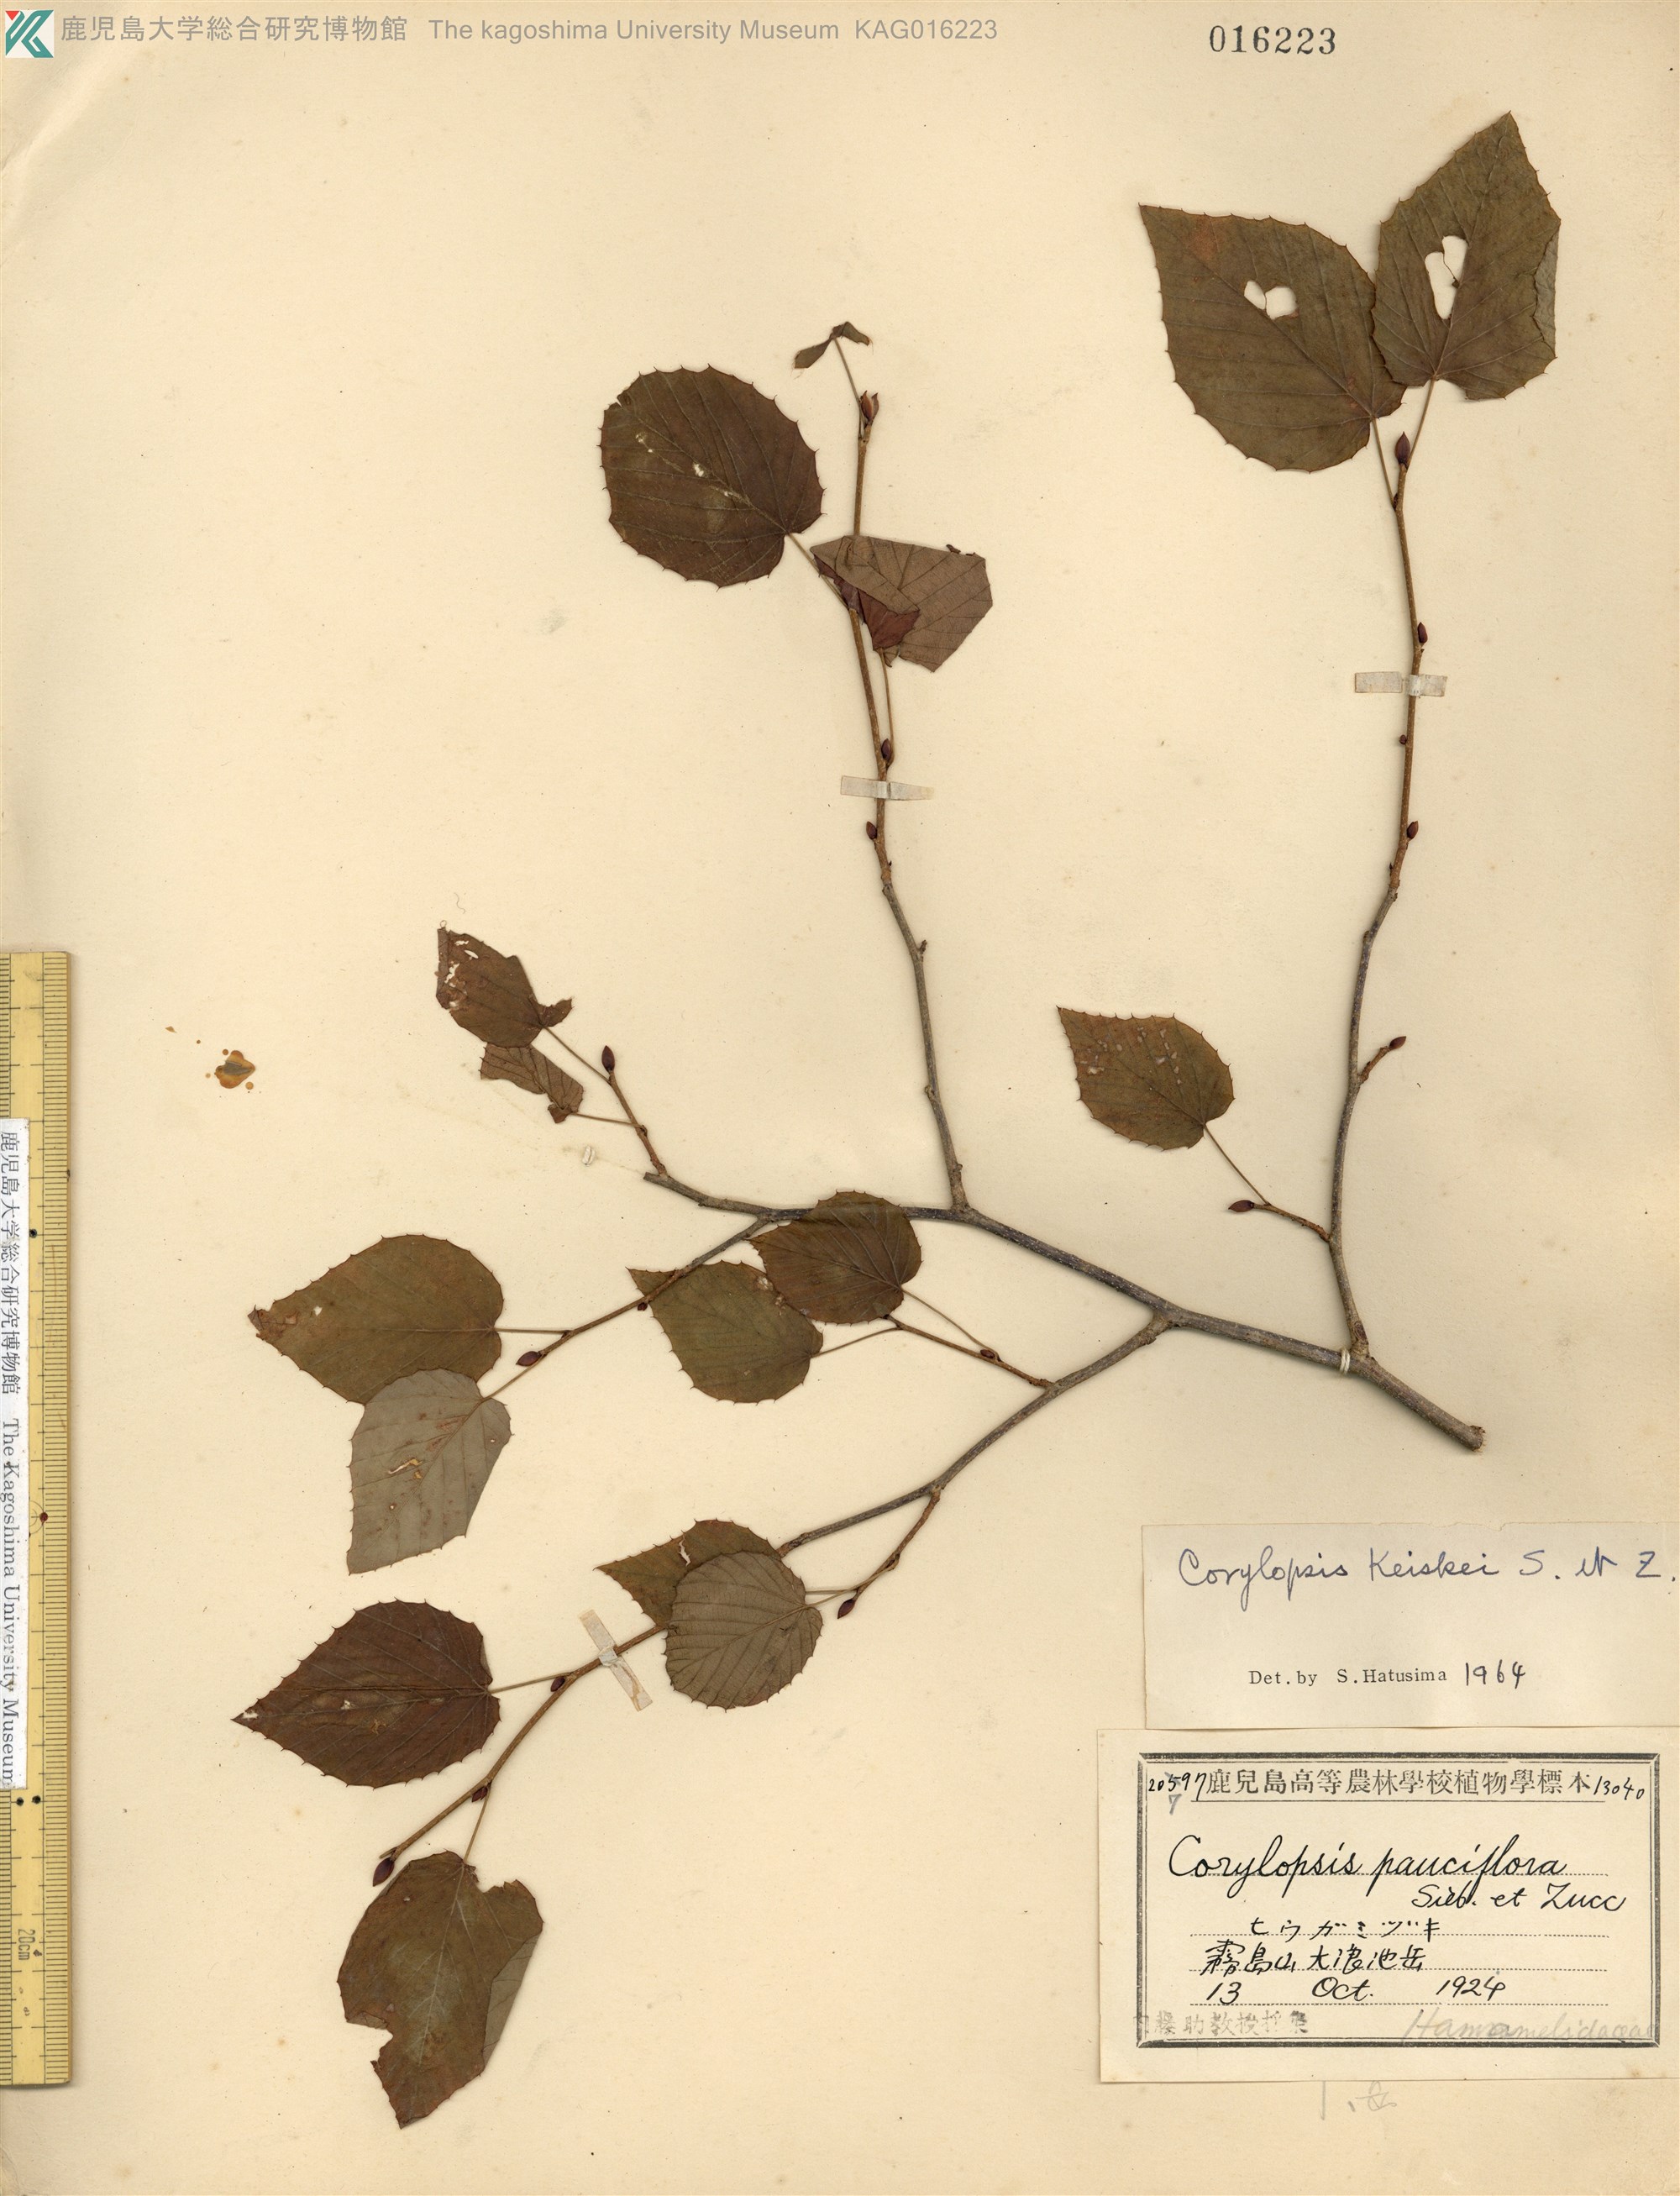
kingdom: Plantae
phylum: Tracheophyta
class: Magnoliopsida
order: Saxifragales
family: Hamamelidaceae
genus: Corylopsis
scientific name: Corylopsis glabrescens
